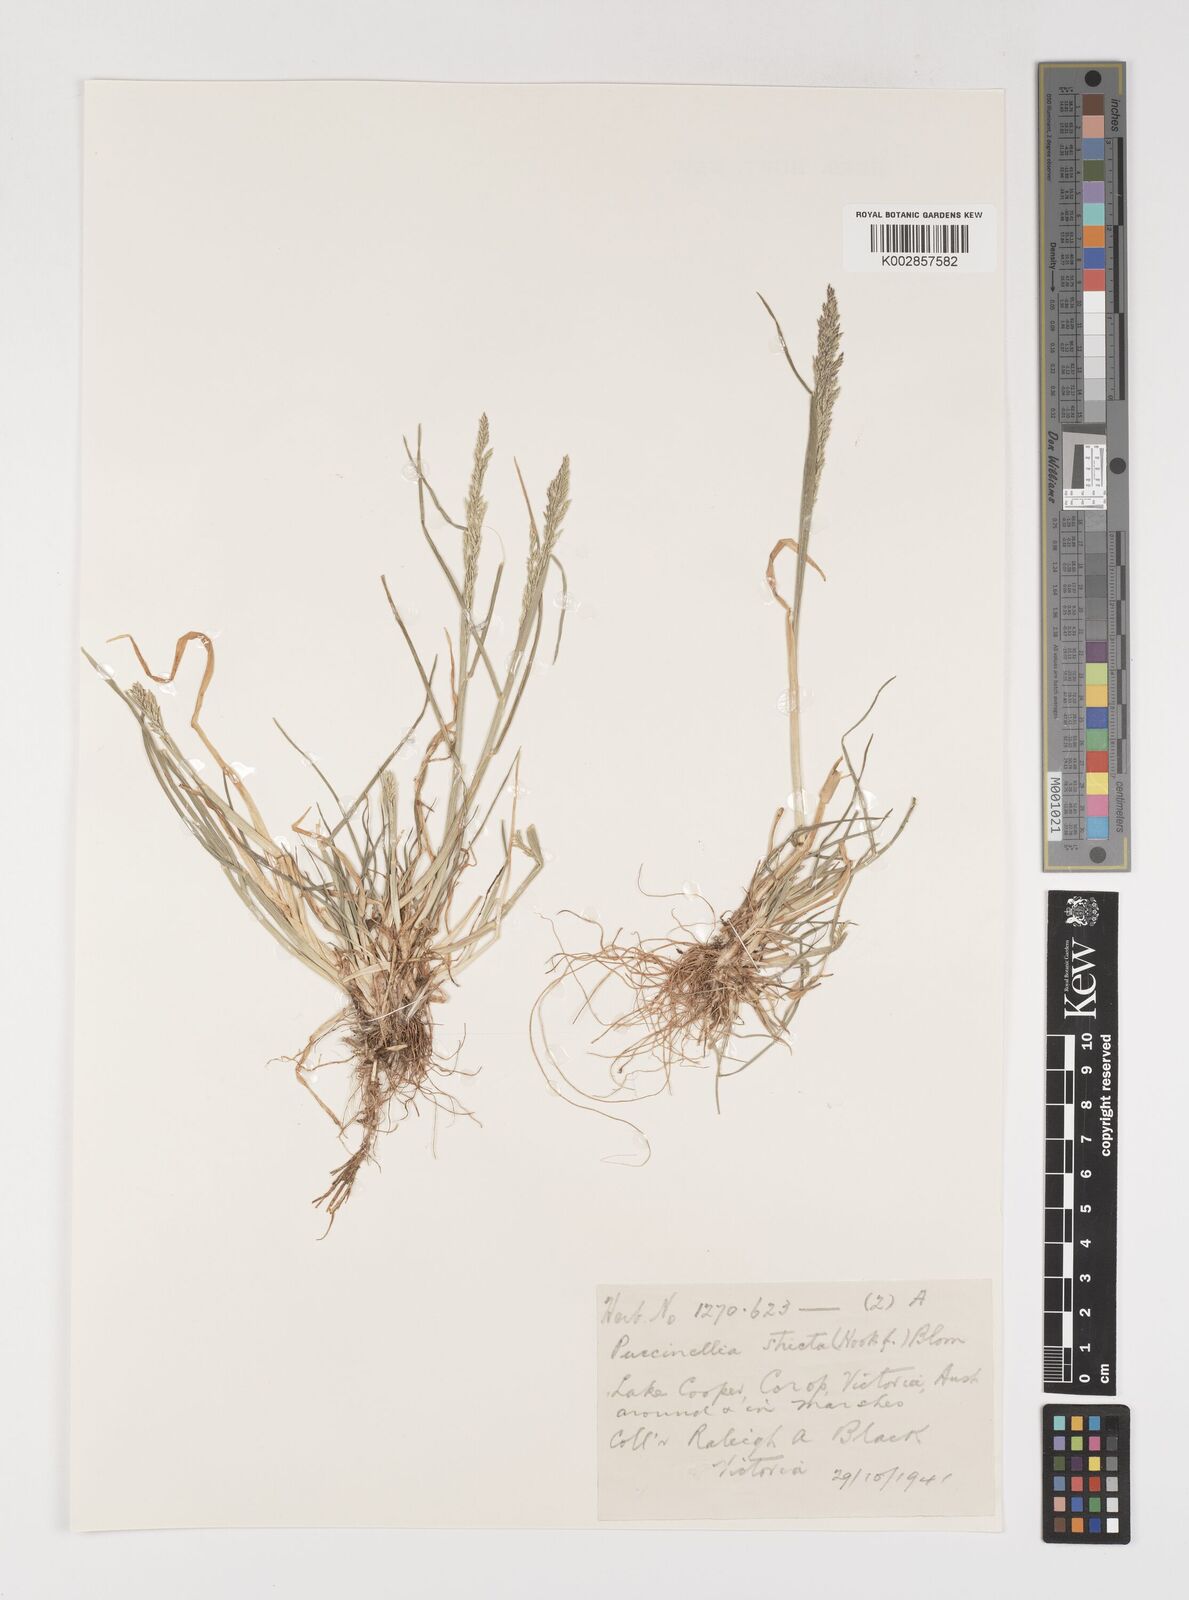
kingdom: Plantae
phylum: Tracheophyta
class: Liliopsida
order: Poales
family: Poaceae
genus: Puccinellia
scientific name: Puccinellia stricta
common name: Australian saltmarsh grass
